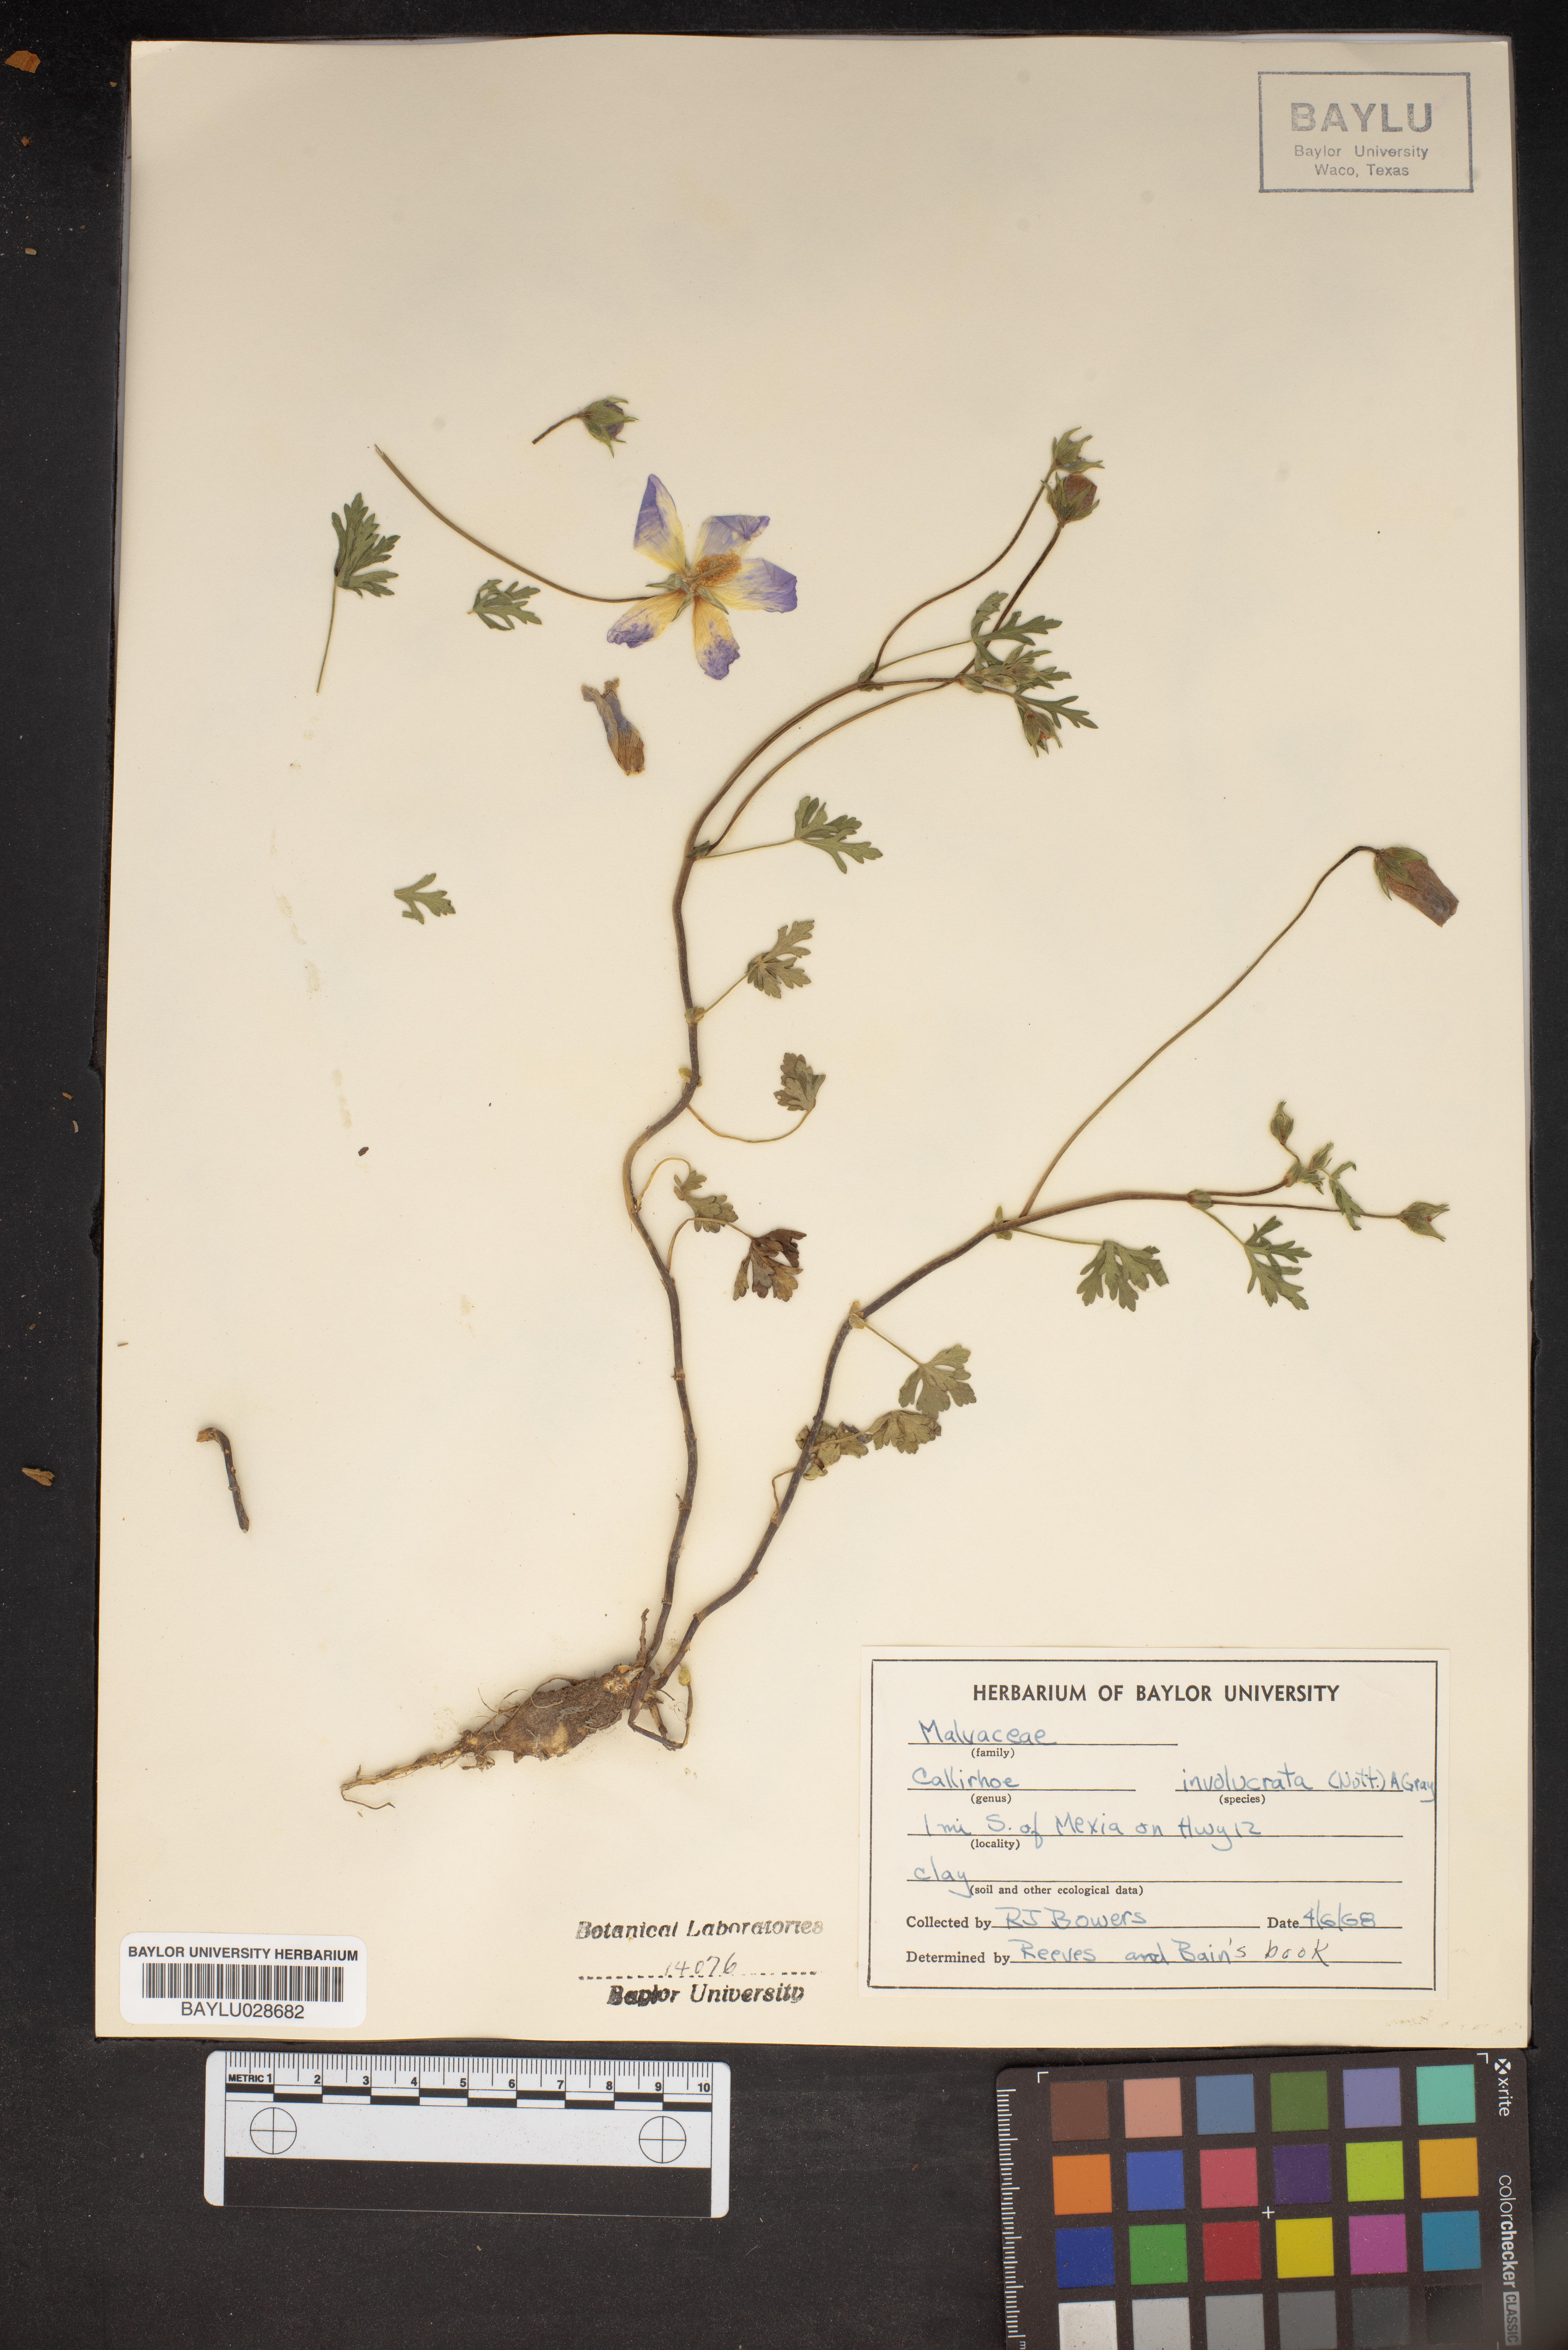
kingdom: Plantae
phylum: Tracheophyta
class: Magnoliopsida
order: Malvales
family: Malvaceae
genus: Callirhoe
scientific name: Callirhoe involucrata
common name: Purple poppy-mallow
